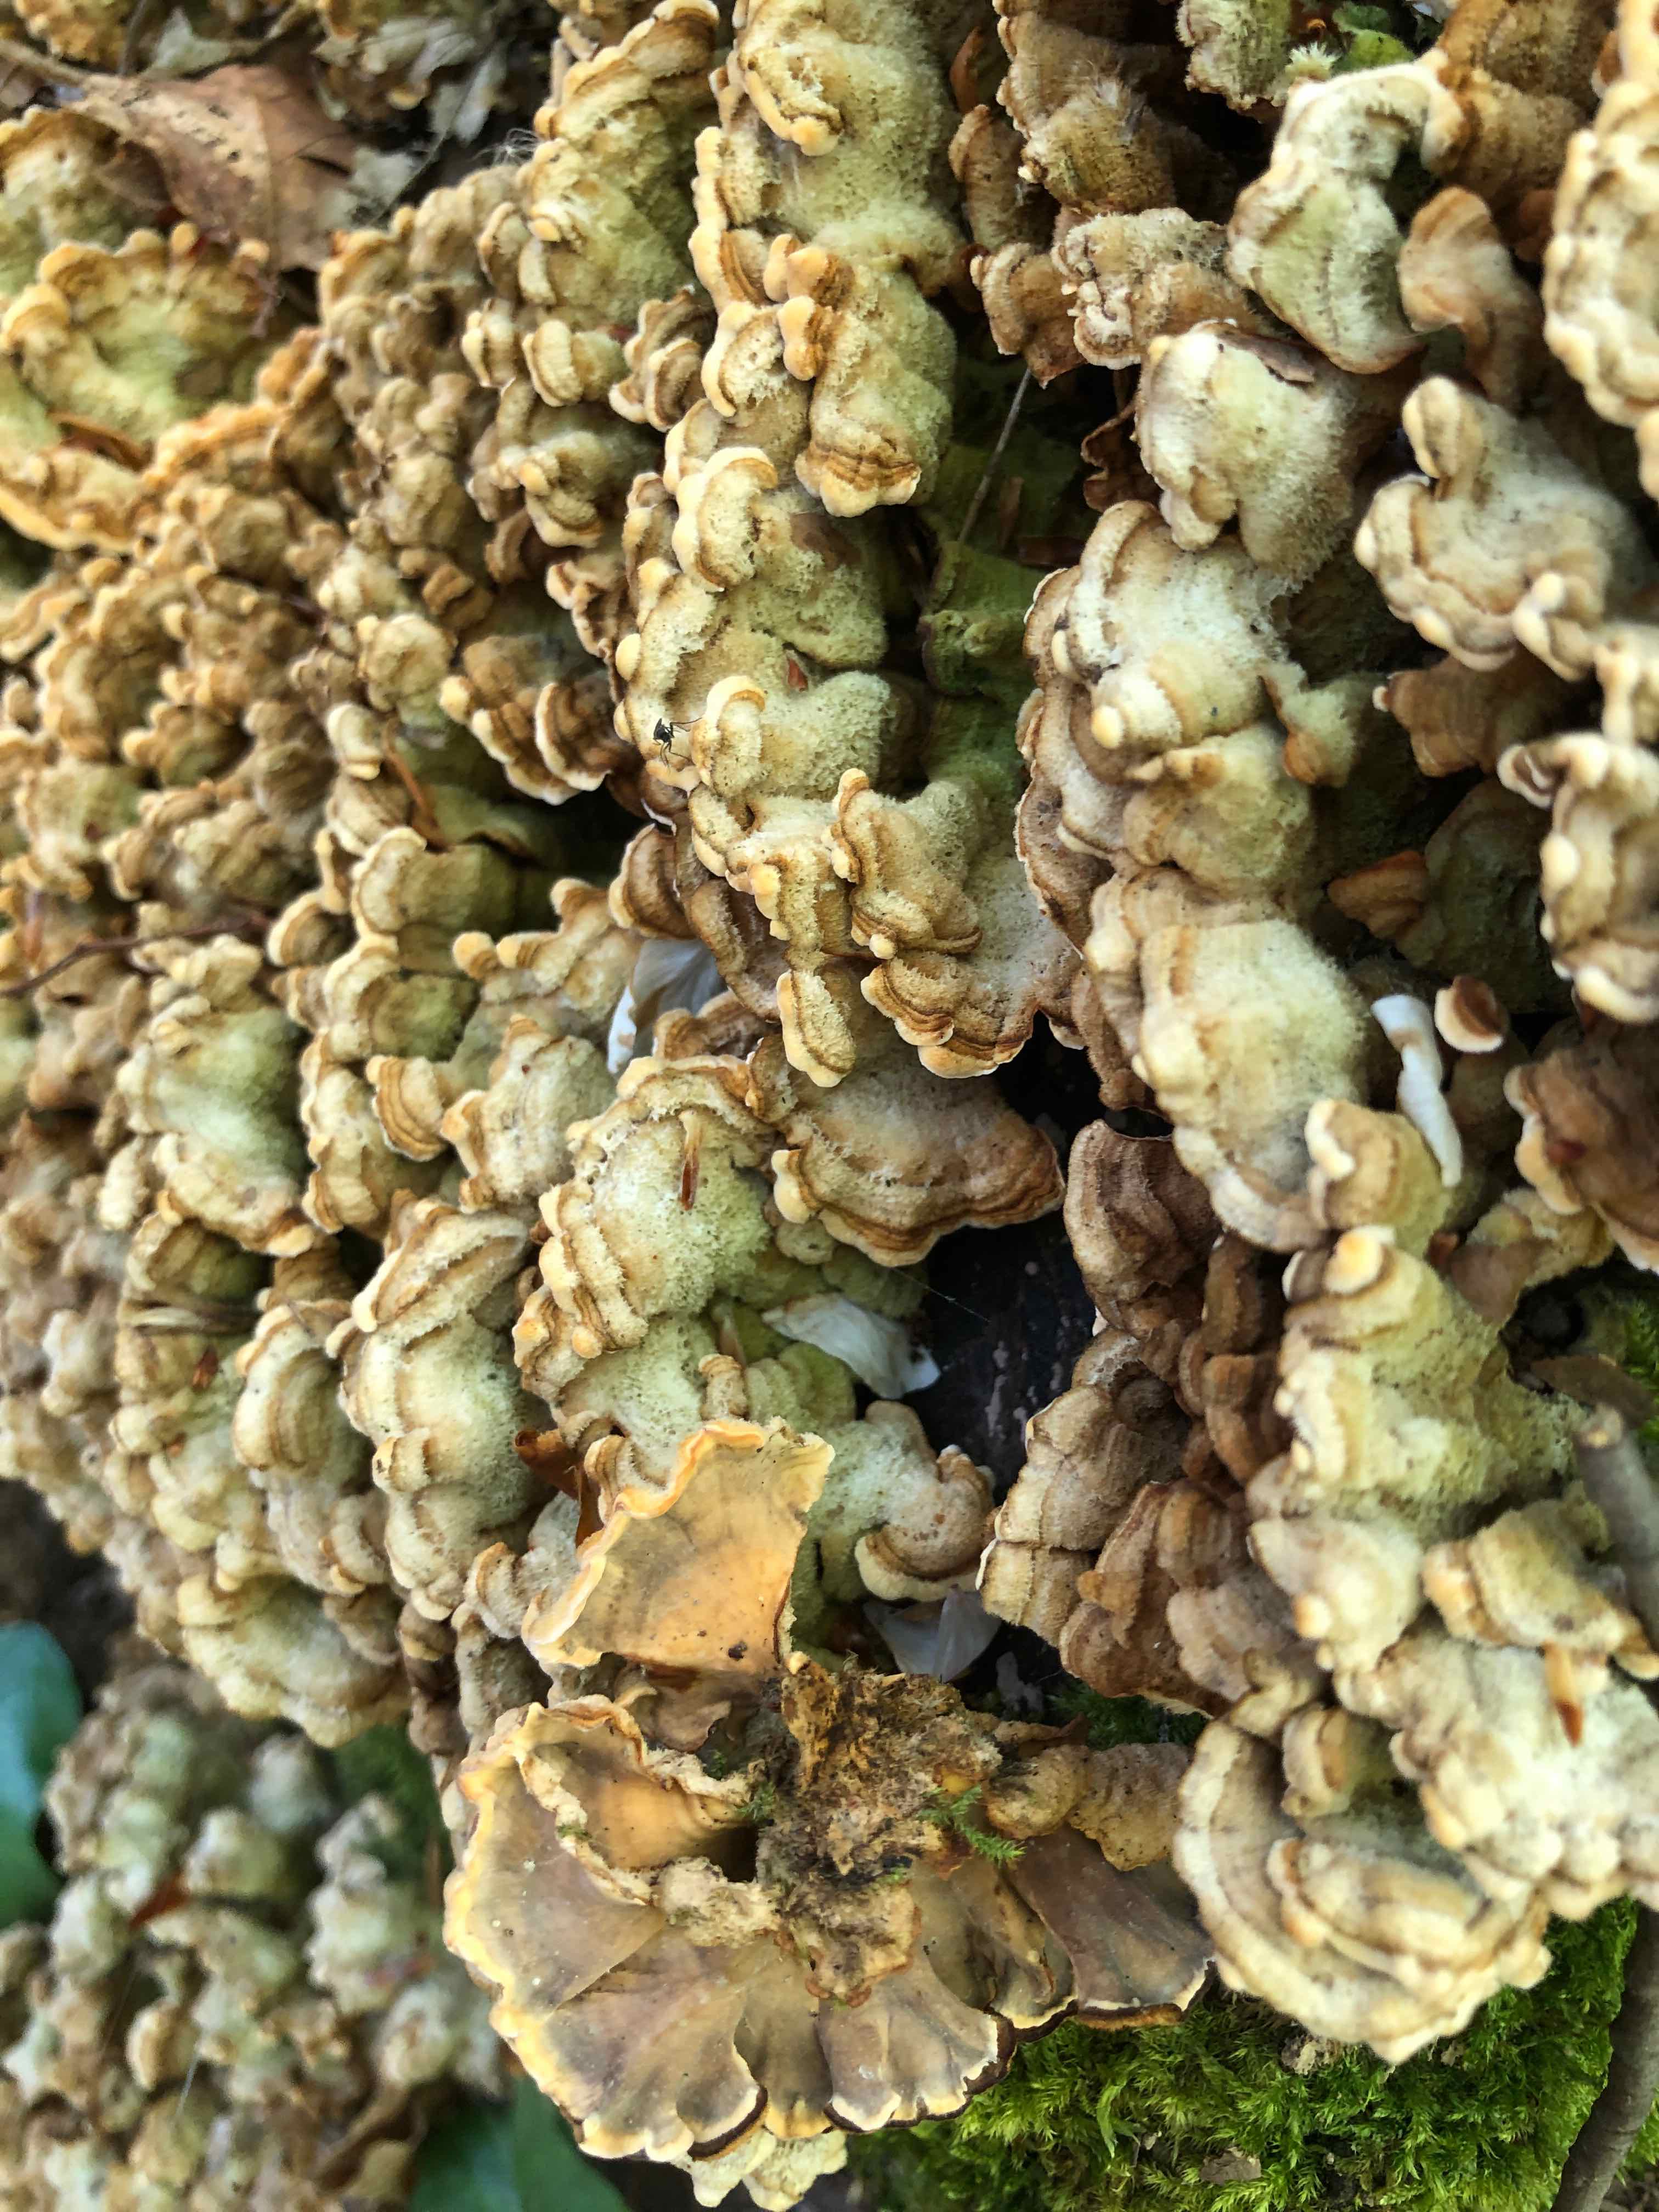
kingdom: Fungi
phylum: Basidiomycota
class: Agaricomycetes
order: Russulales
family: Stereaceae
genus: Stereum
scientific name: Stereum hirsutum
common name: håret lædersvamp
